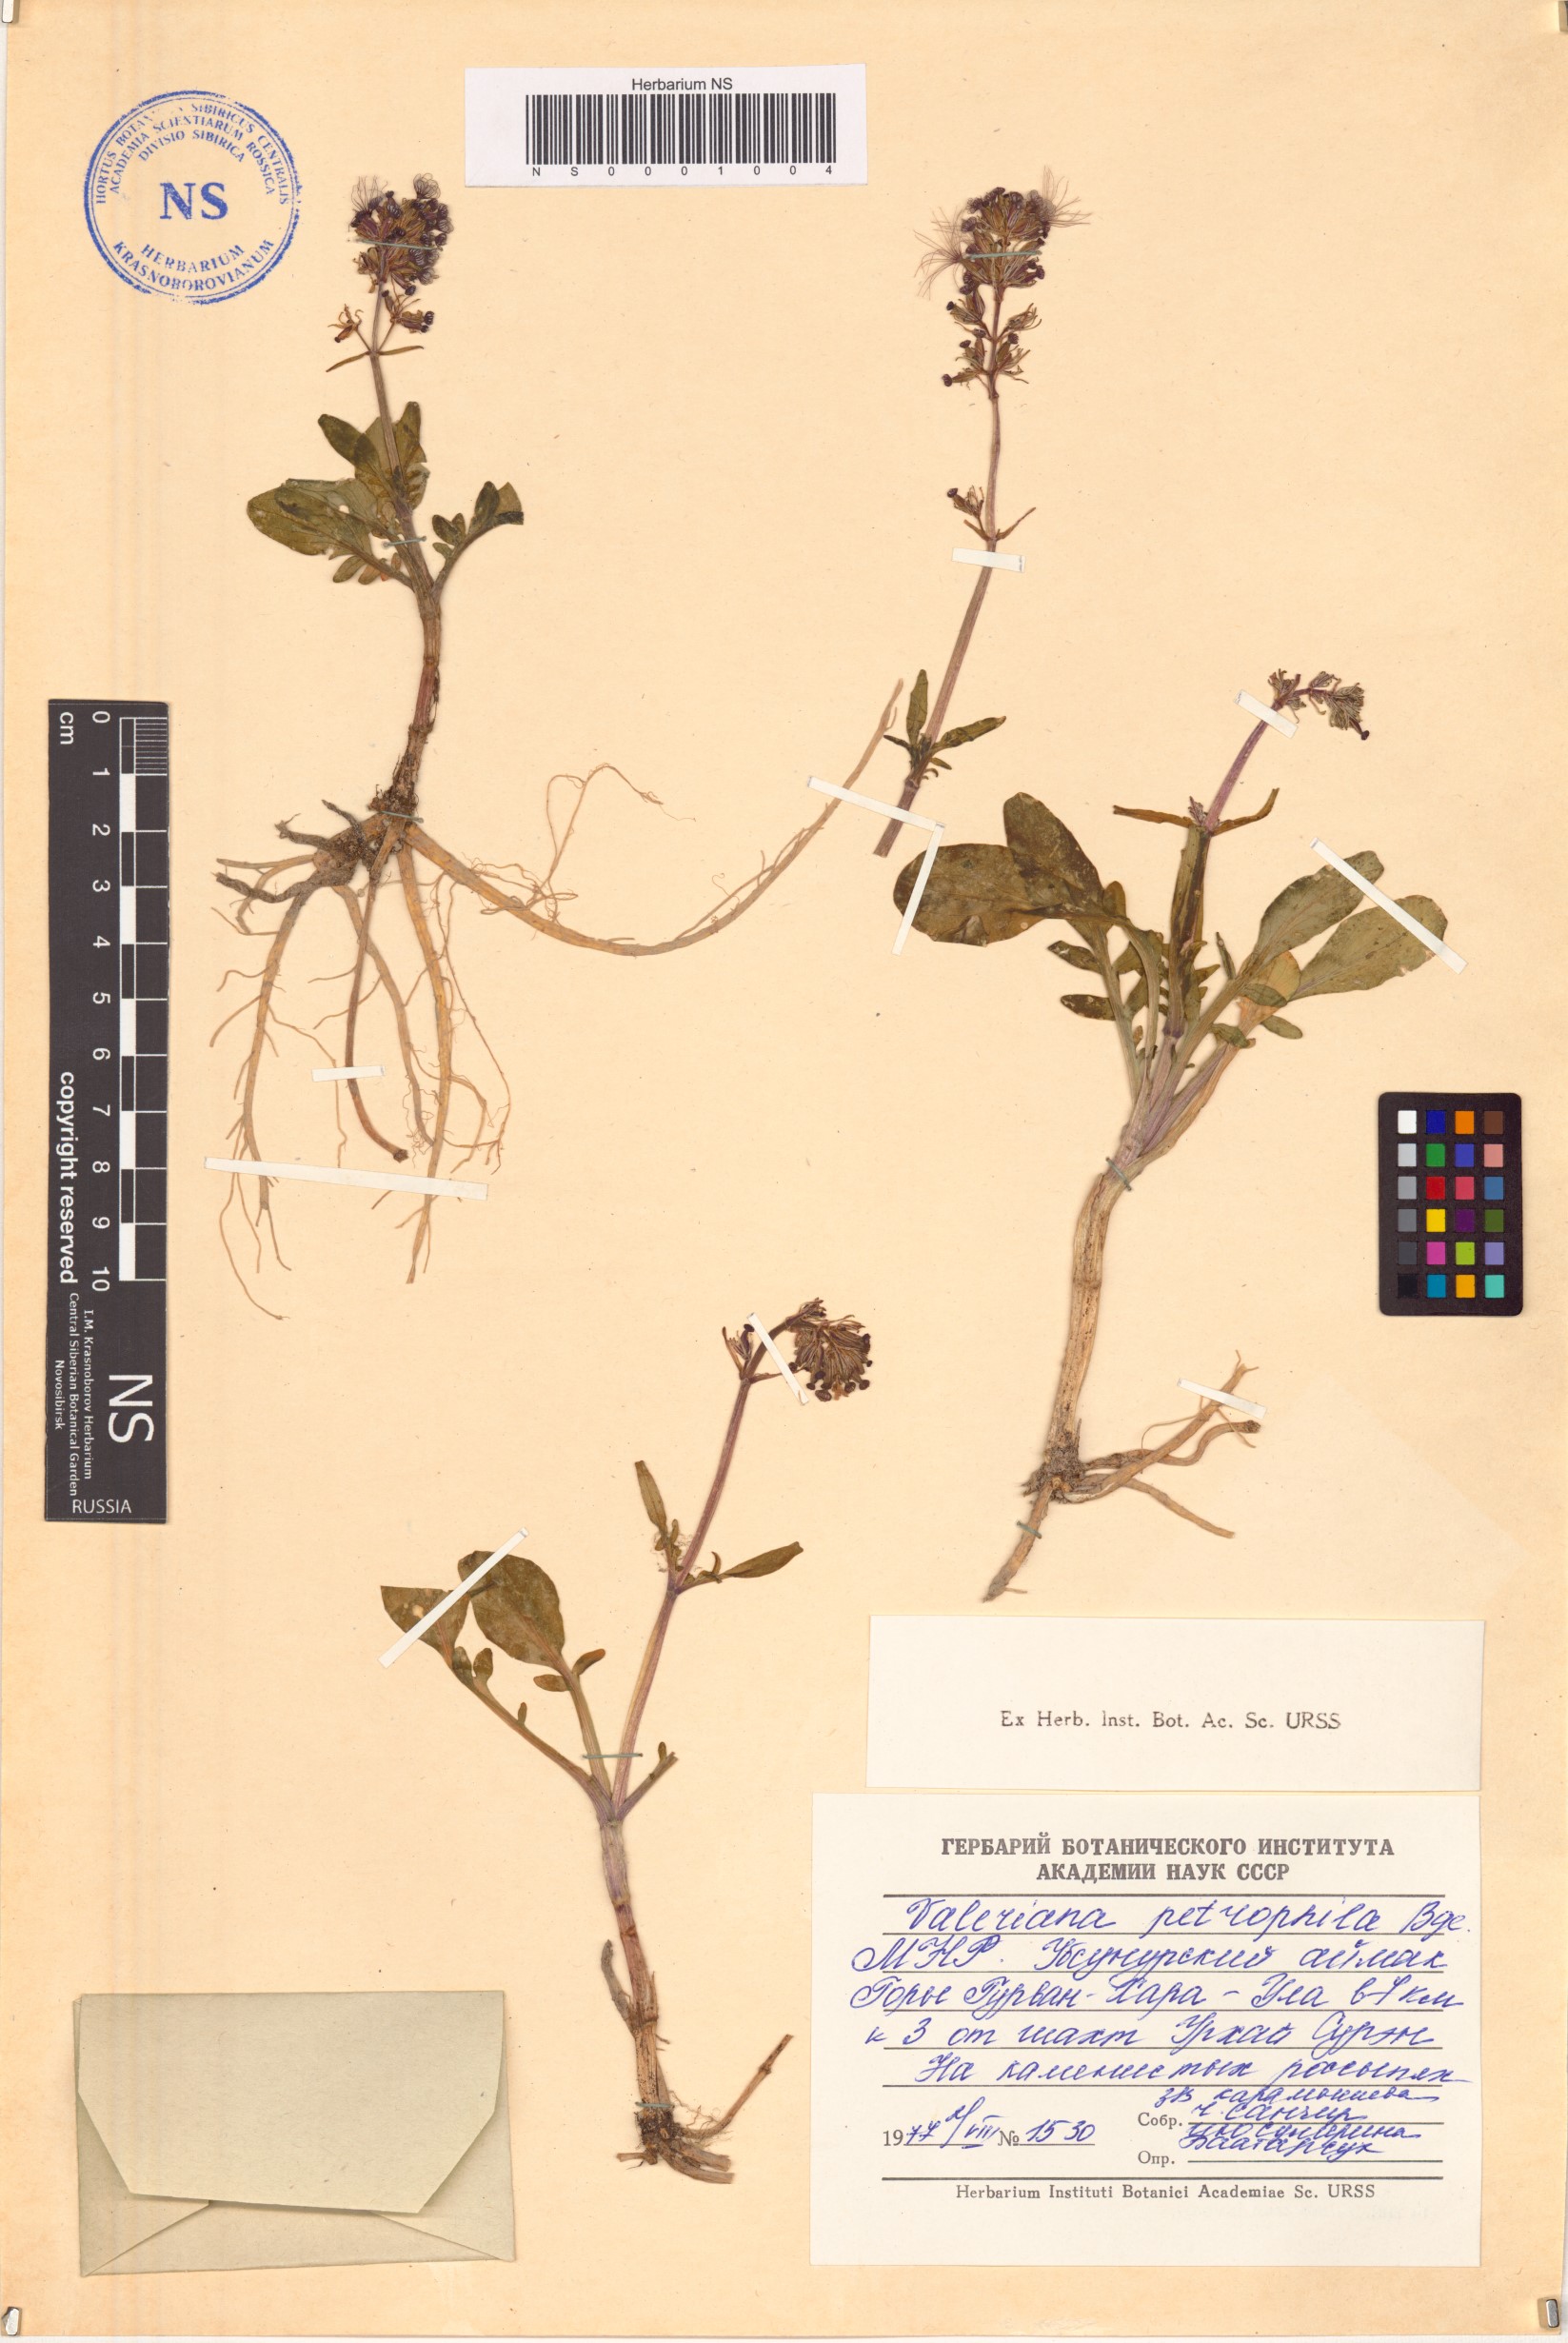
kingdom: Plantae
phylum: Tracheophyta
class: Magnoliopsida
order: Dipsacales
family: Caprifoliaceae
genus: Valeriana
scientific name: Valeriana petrophila
